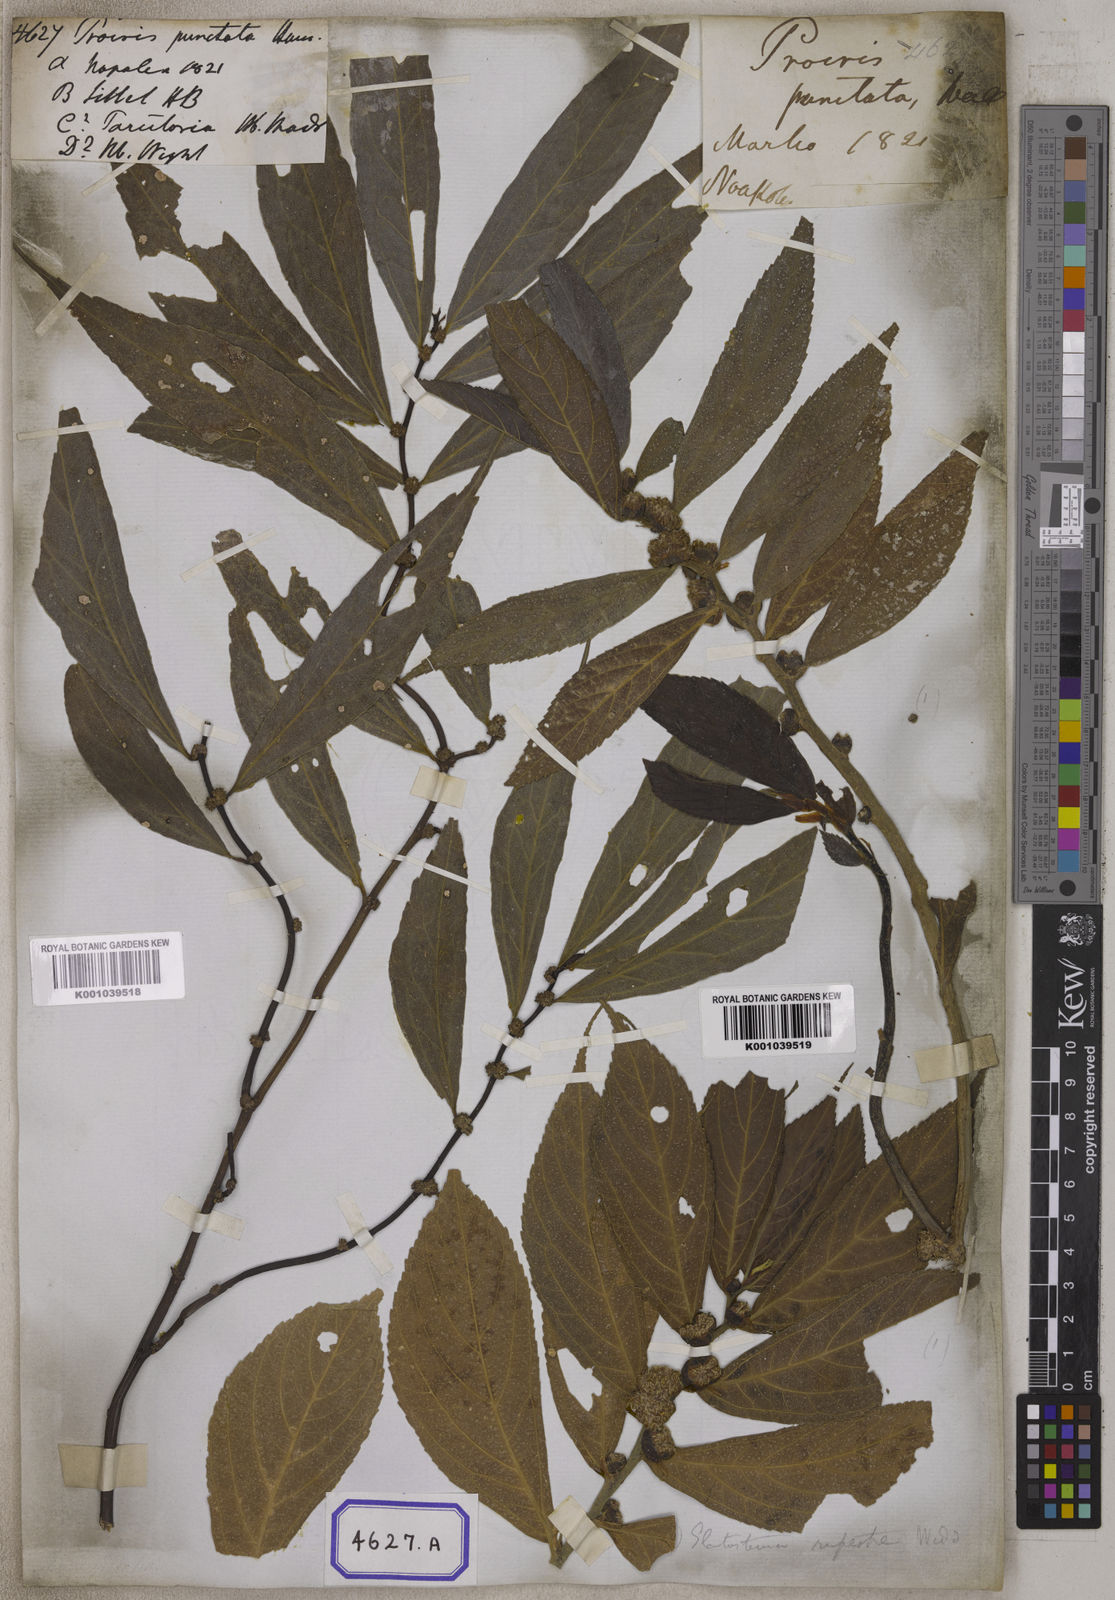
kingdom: Plantae
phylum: Tracheophyta
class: Magnoliopsida
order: Rosales
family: Urticaceae
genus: Procris
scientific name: Procris
